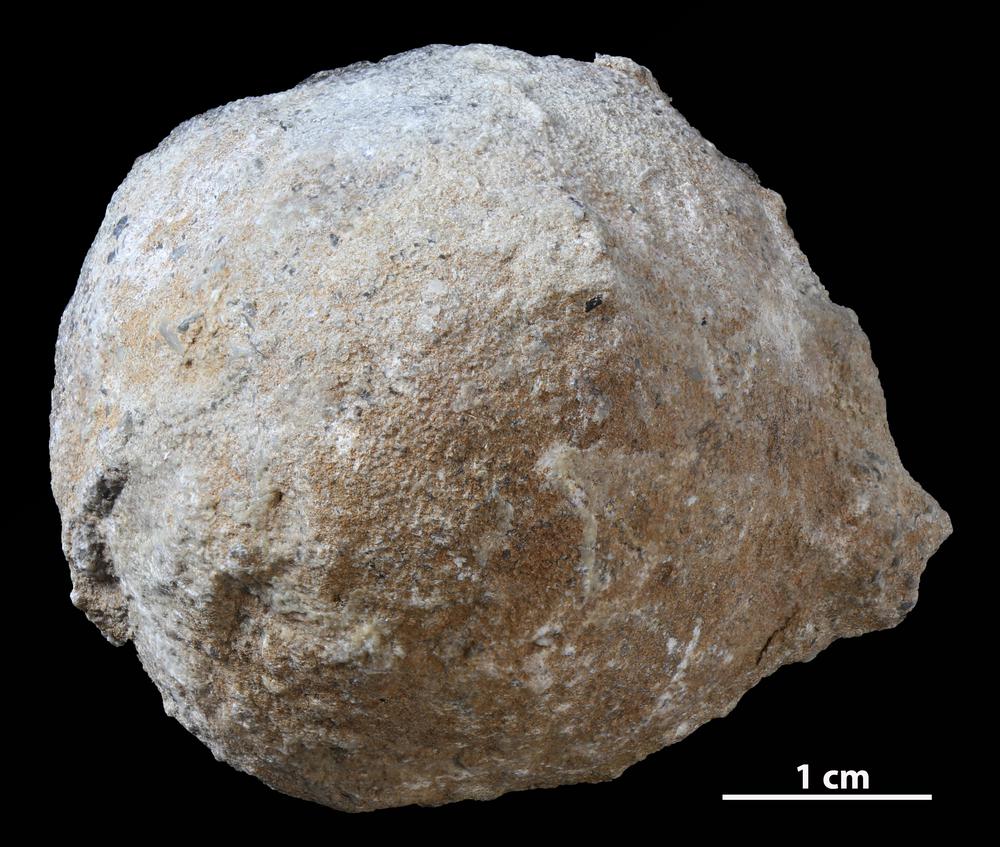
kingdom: Animalia
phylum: Bryozoa
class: Stenolaemata
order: Trepostomatida
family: Diplotrypidae
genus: Diplotrypa
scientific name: Diplotrypa petropolitana
